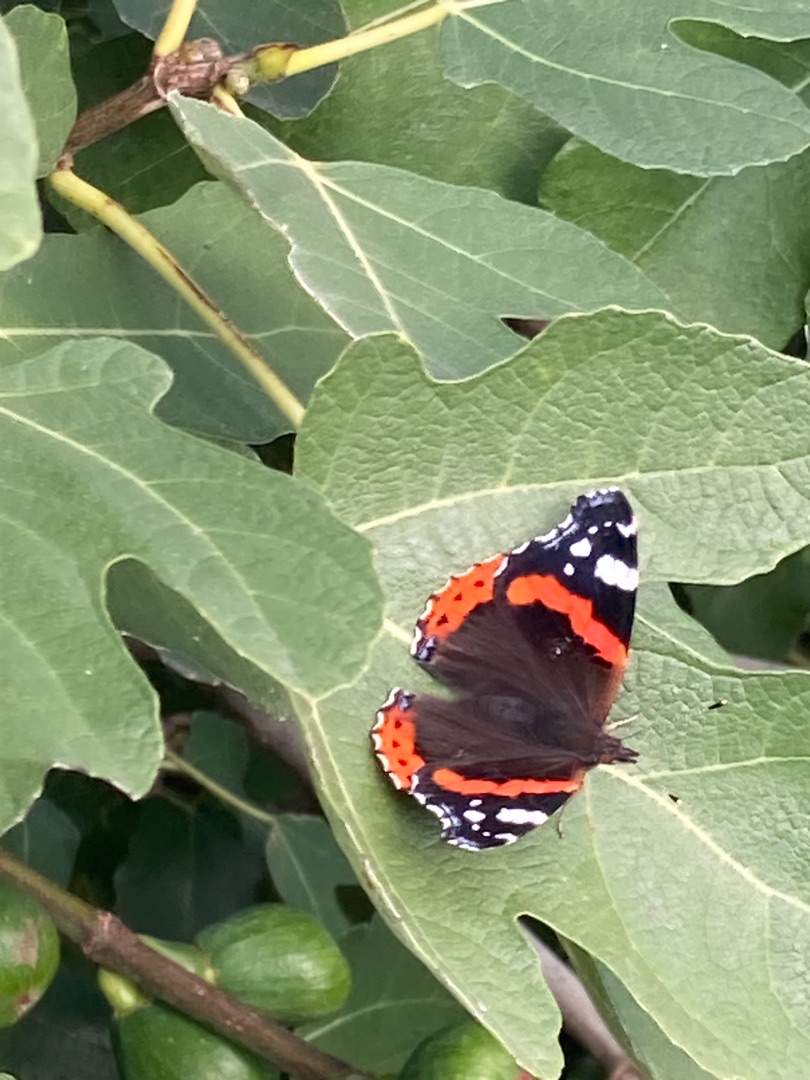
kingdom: Animalia
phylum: Arthropoda
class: Insecta
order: Lepidoptera
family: Nymphalidae
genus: Vanessa
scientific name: Vanessa atalanta
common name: Admiral
